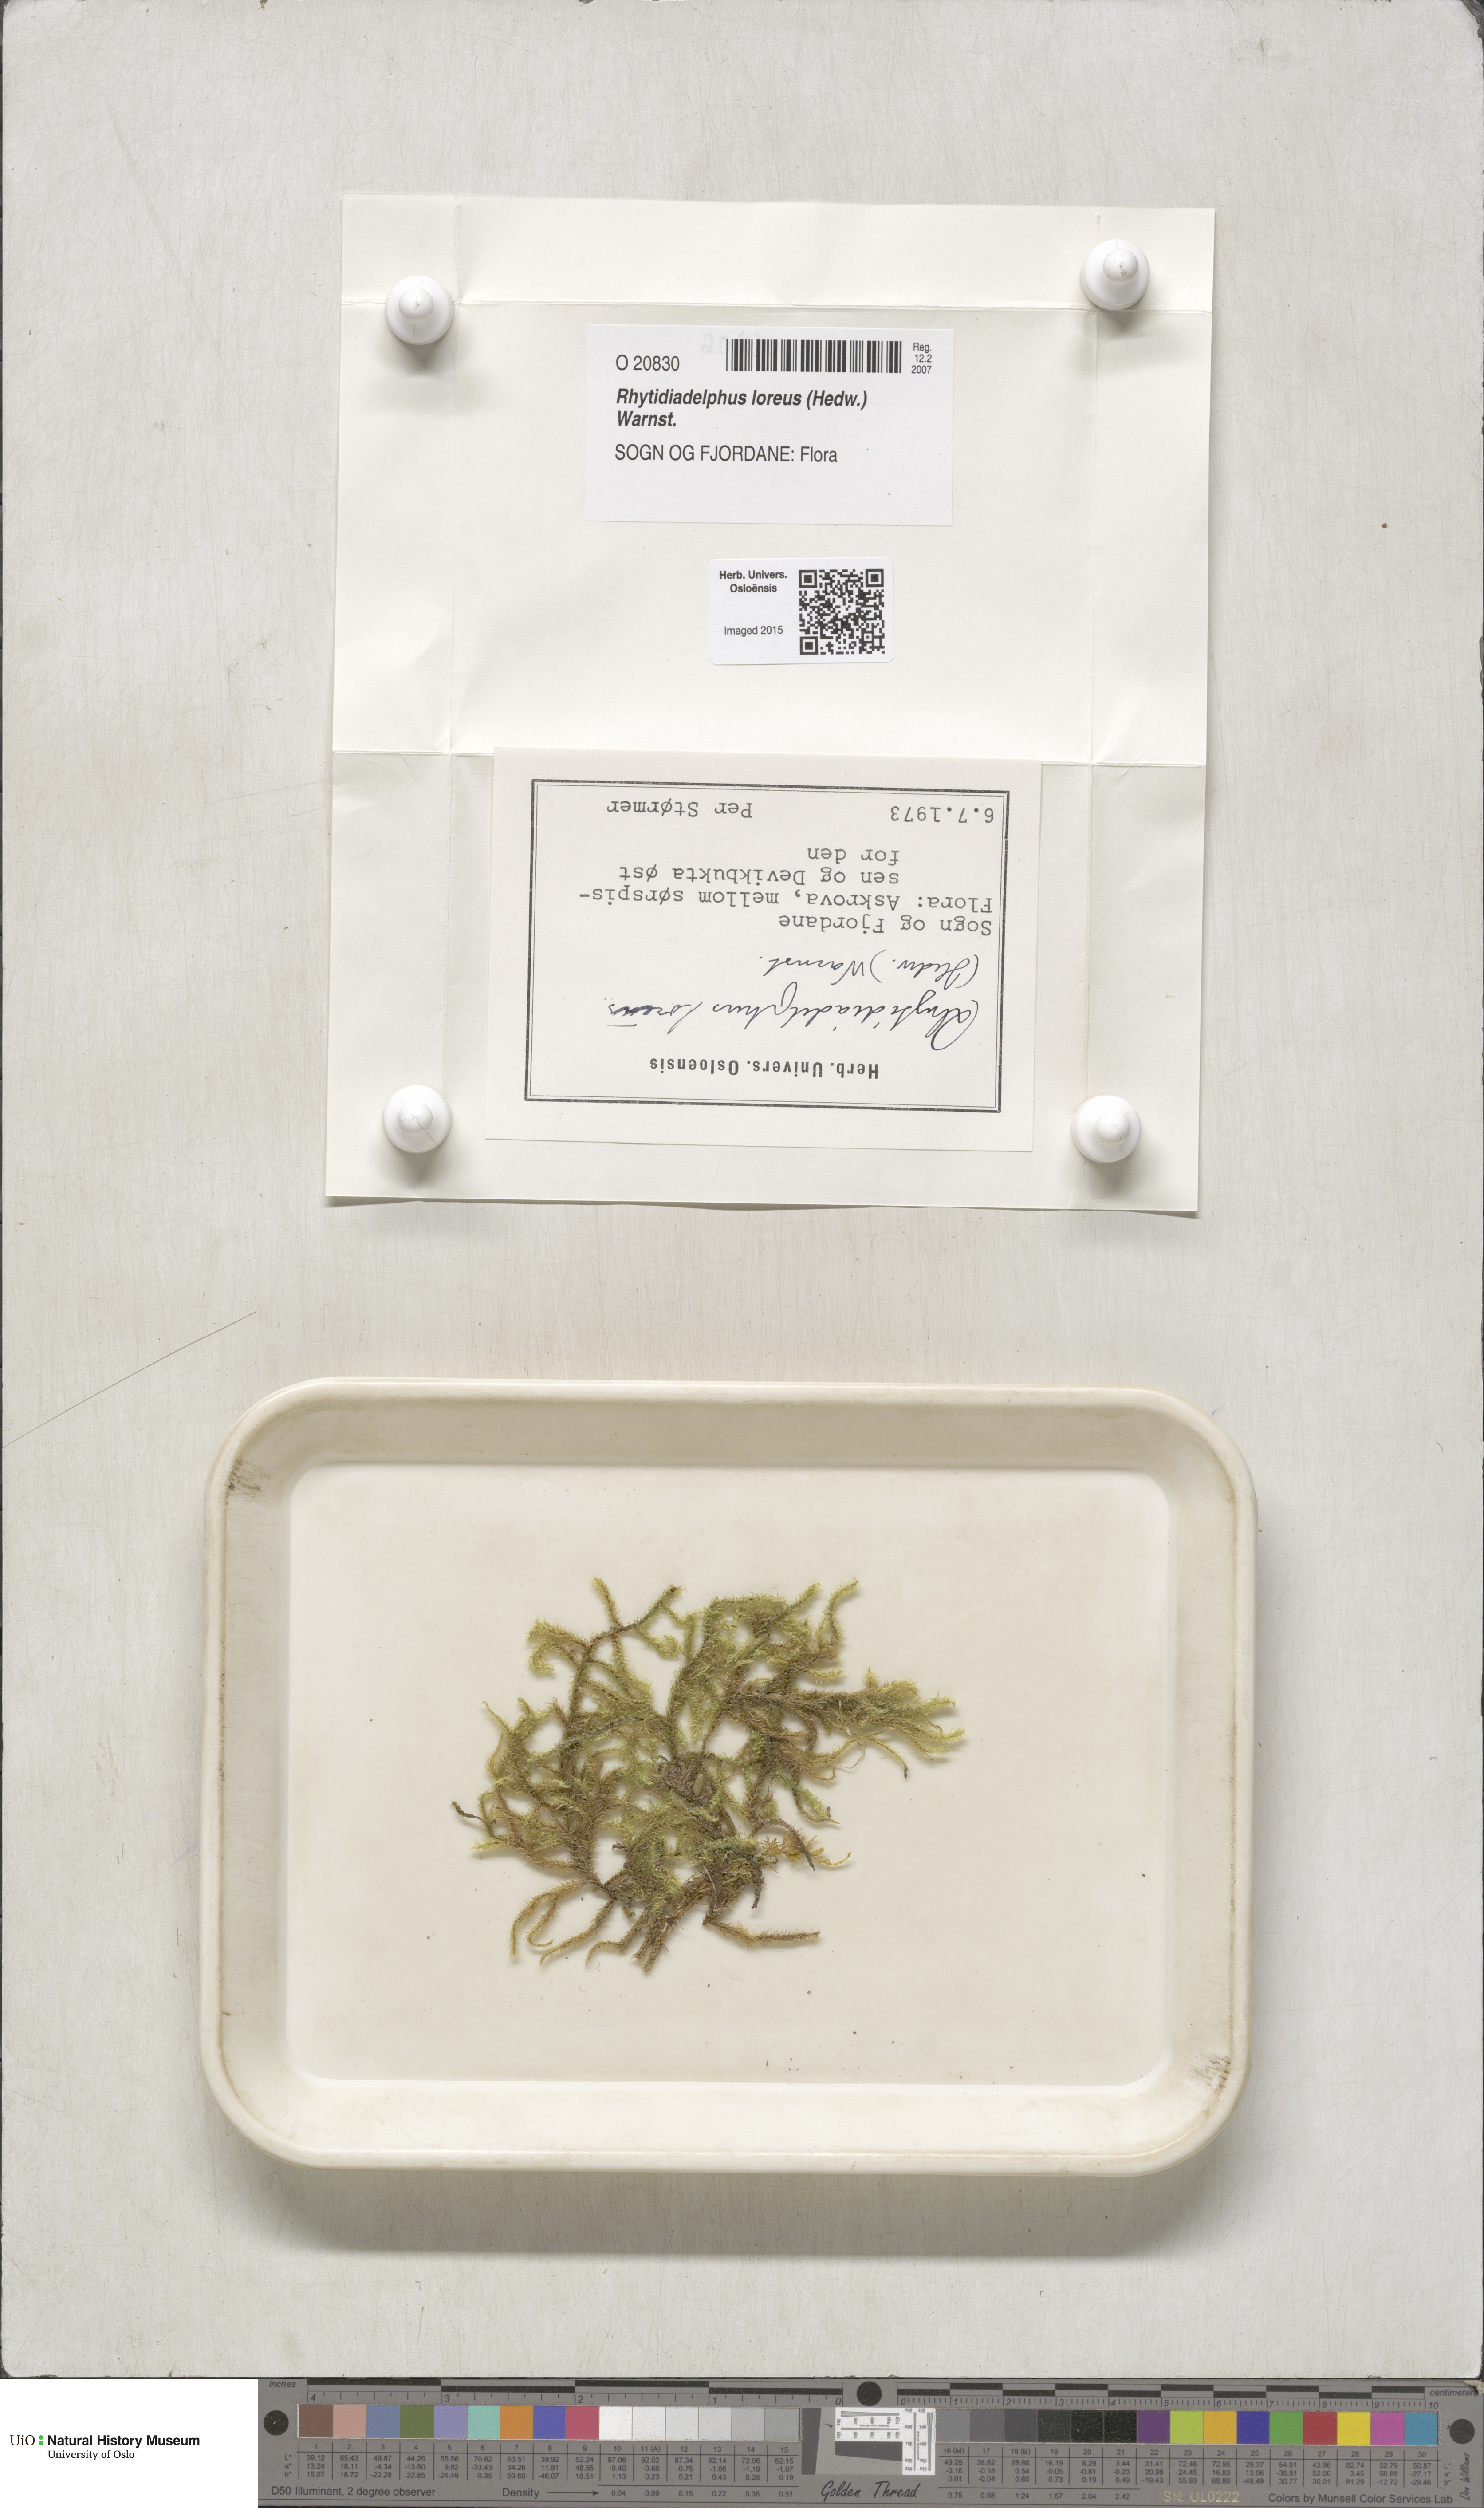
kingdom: Plantae
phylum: Bryophyta
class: Bryopsida
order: Hypnales
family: Hylocomiaceae
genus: Rhytidiadelphus
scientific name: Rhytidiadelphus loreus
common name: Lanky moss
